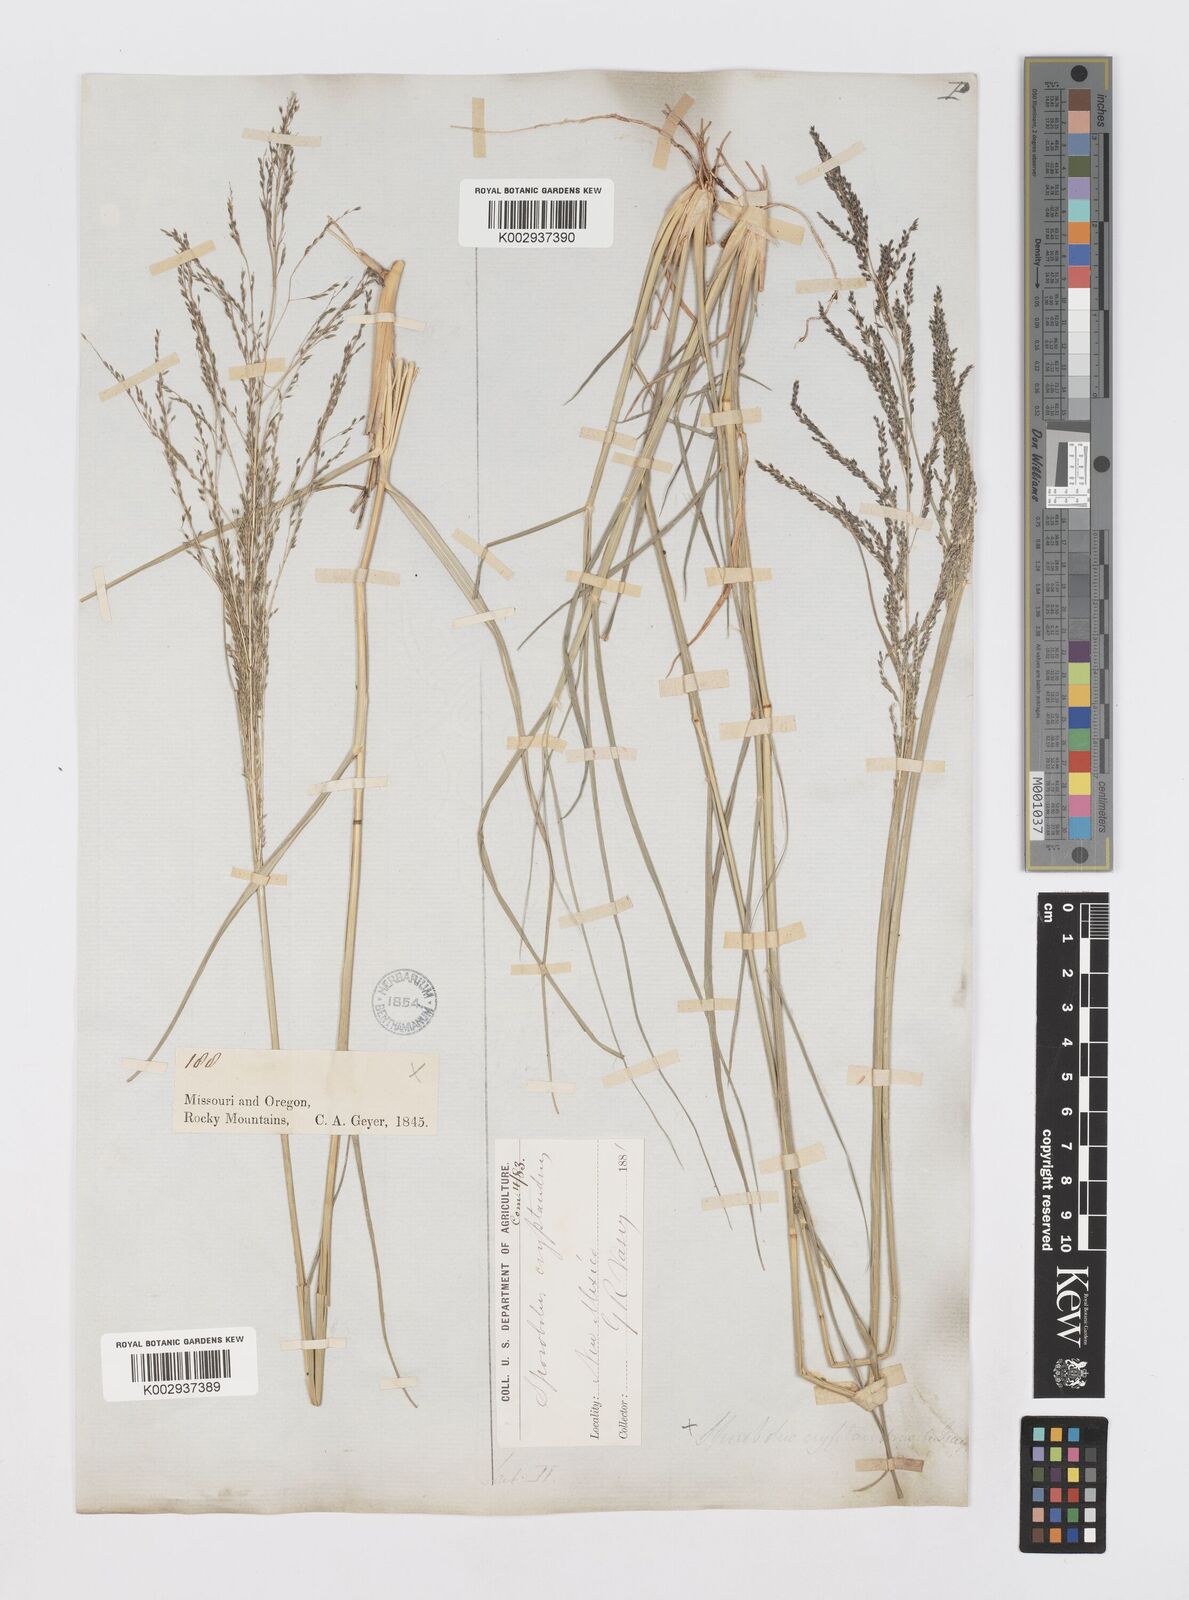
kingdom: Plantae
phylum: Tracheophyta
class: Liliopsida
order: Poales
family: Poaceae
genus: Sporobolus
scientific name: Sporobolus cryptandrus
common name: Sand dropseed
